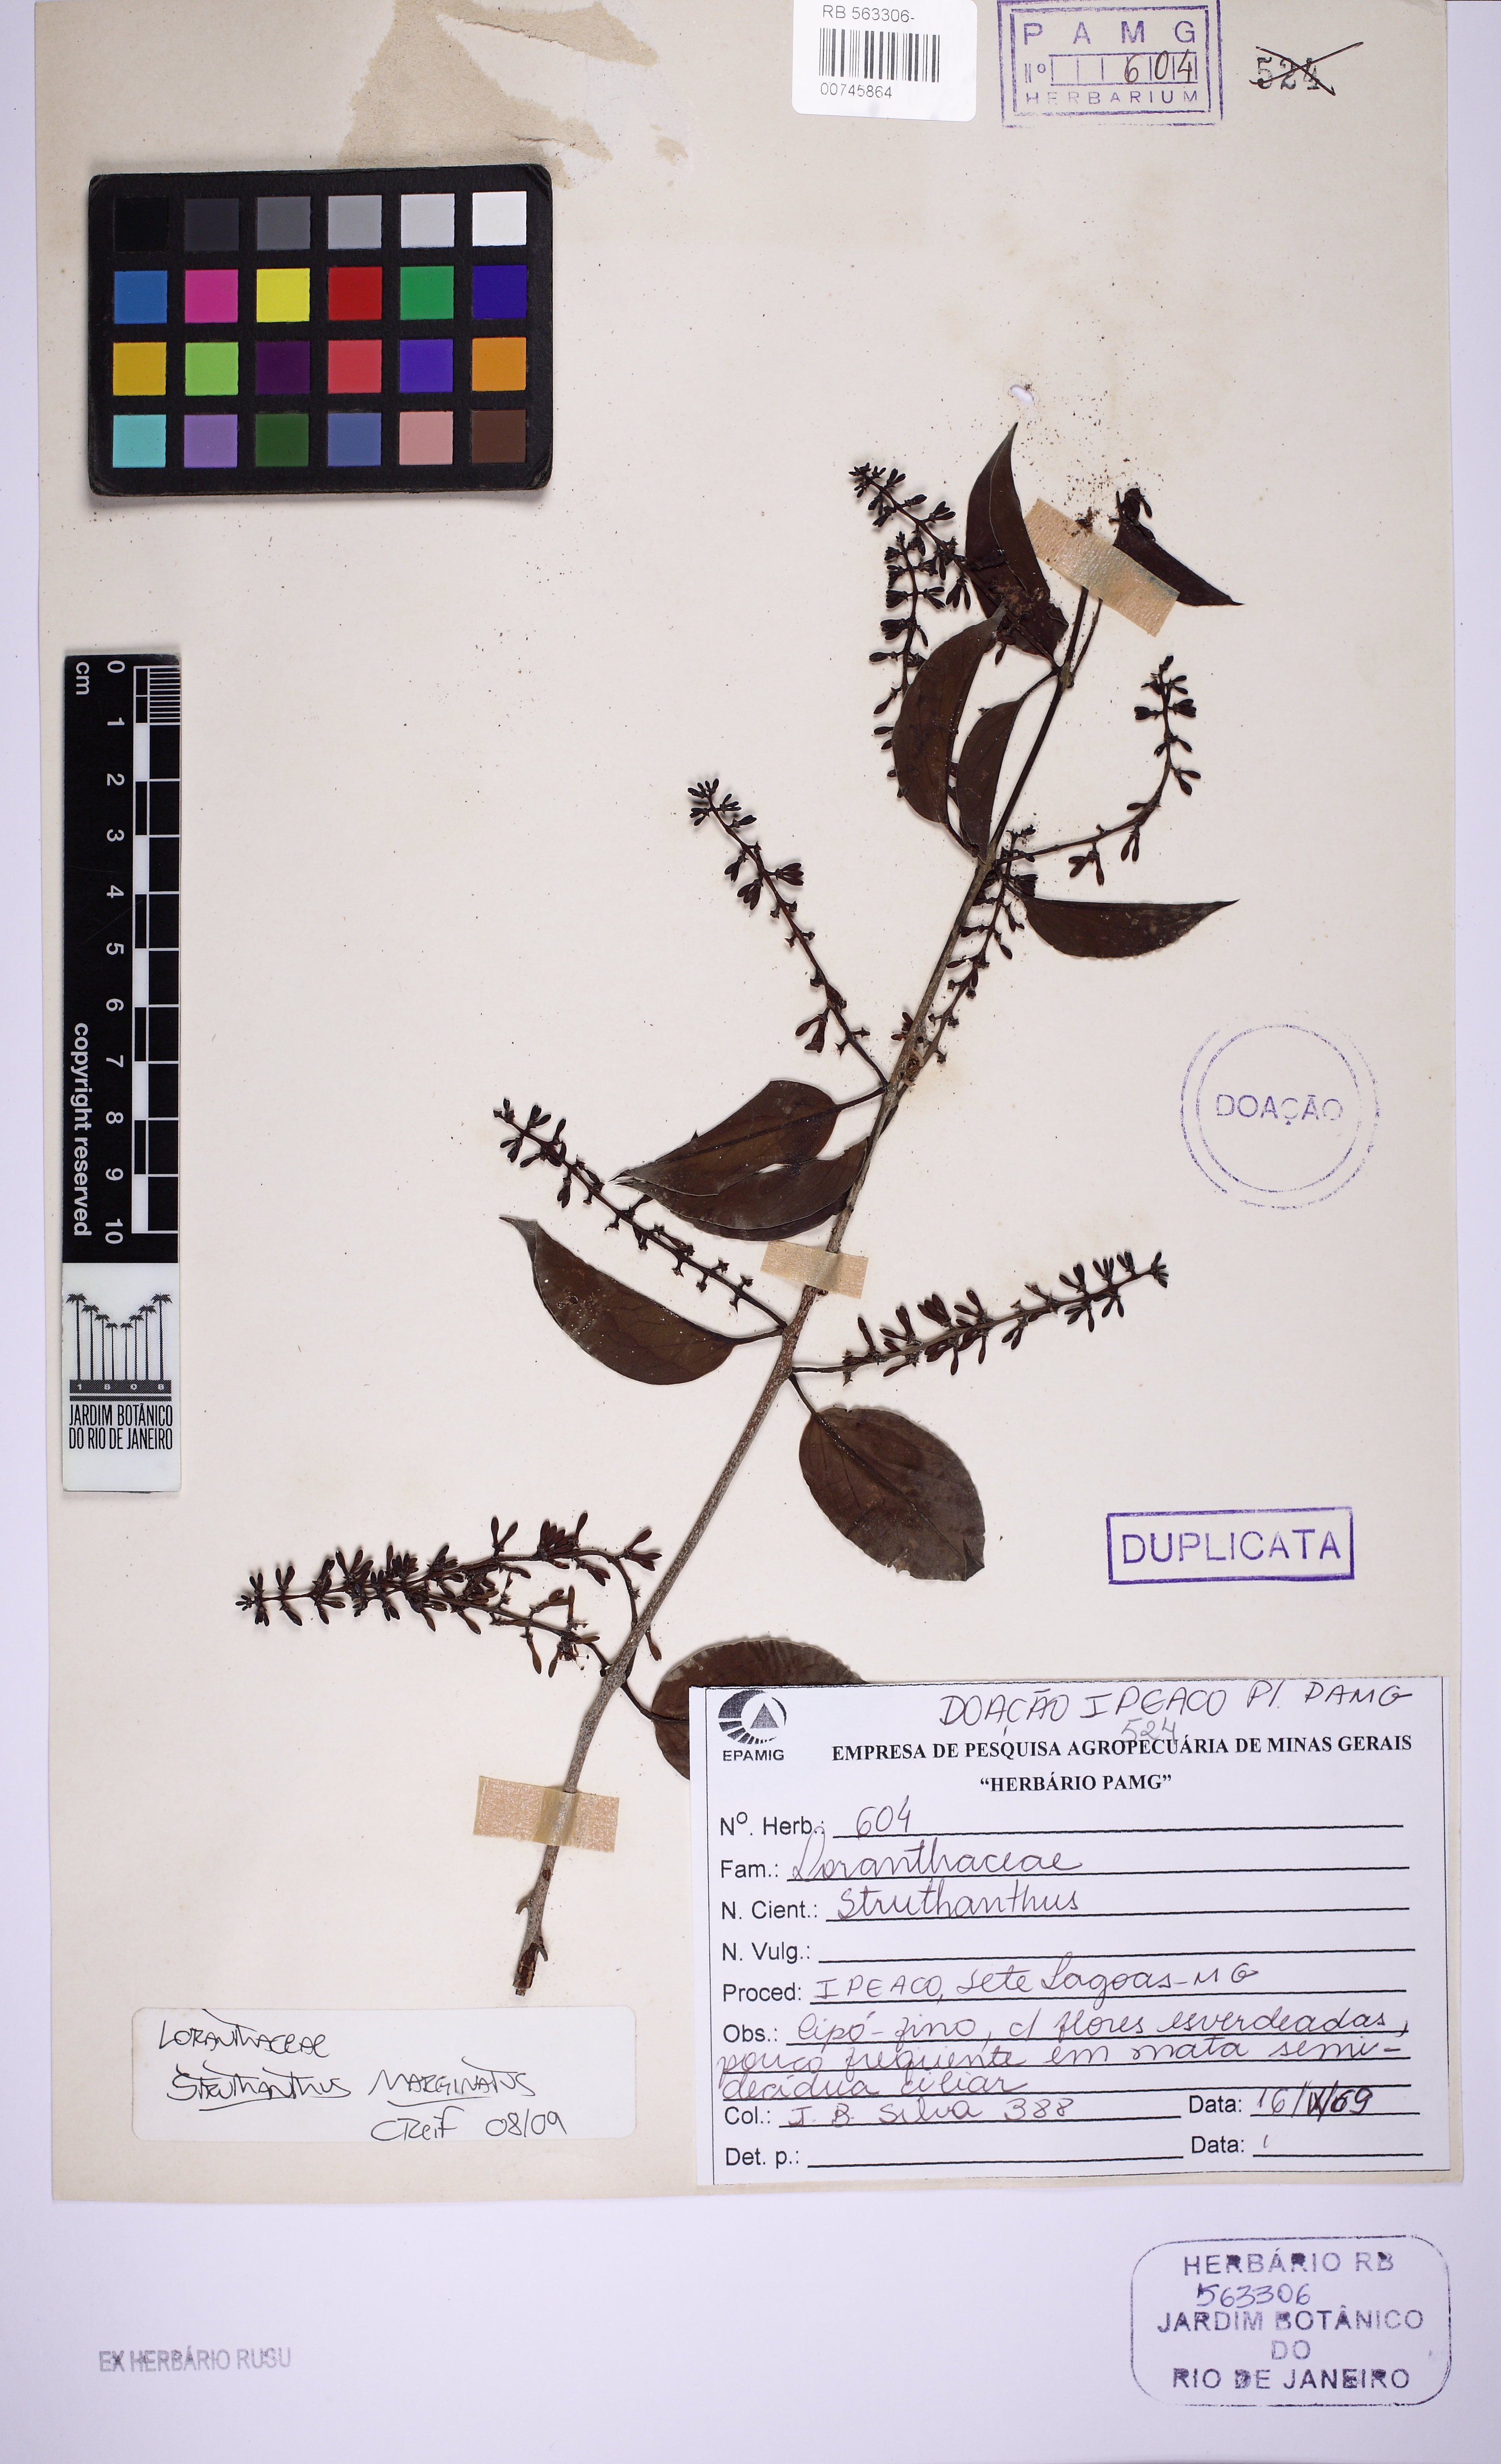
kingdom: Plantae
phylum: Tracheophyta
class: Magnoliopsida
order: Santalales
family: Loranthaceae
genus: Struthanthus
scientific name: Struthanthus marginatus
